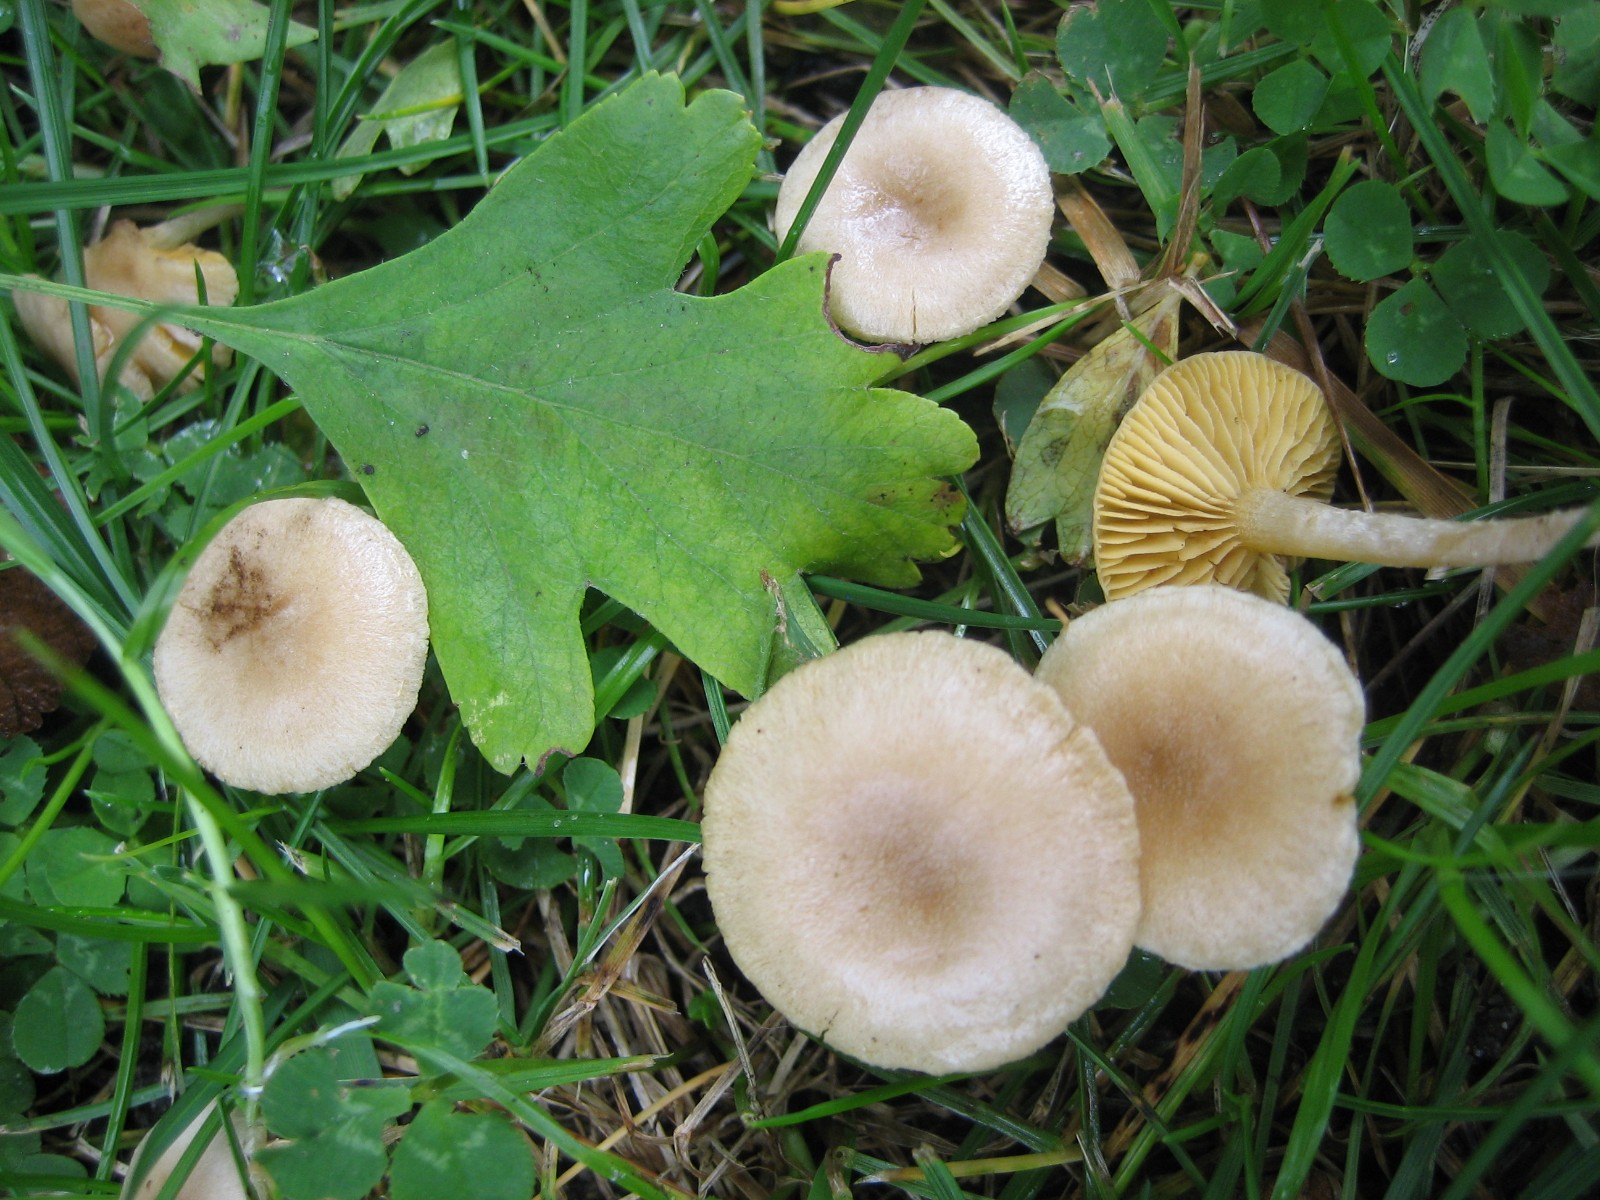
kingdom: Fungi
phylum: Basidiomycota
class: Agaricomycetes
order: Agaricales
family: Tubariaceae
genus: Tubaria
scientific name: Tubaria dispersa
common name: tjørne-fnughat
